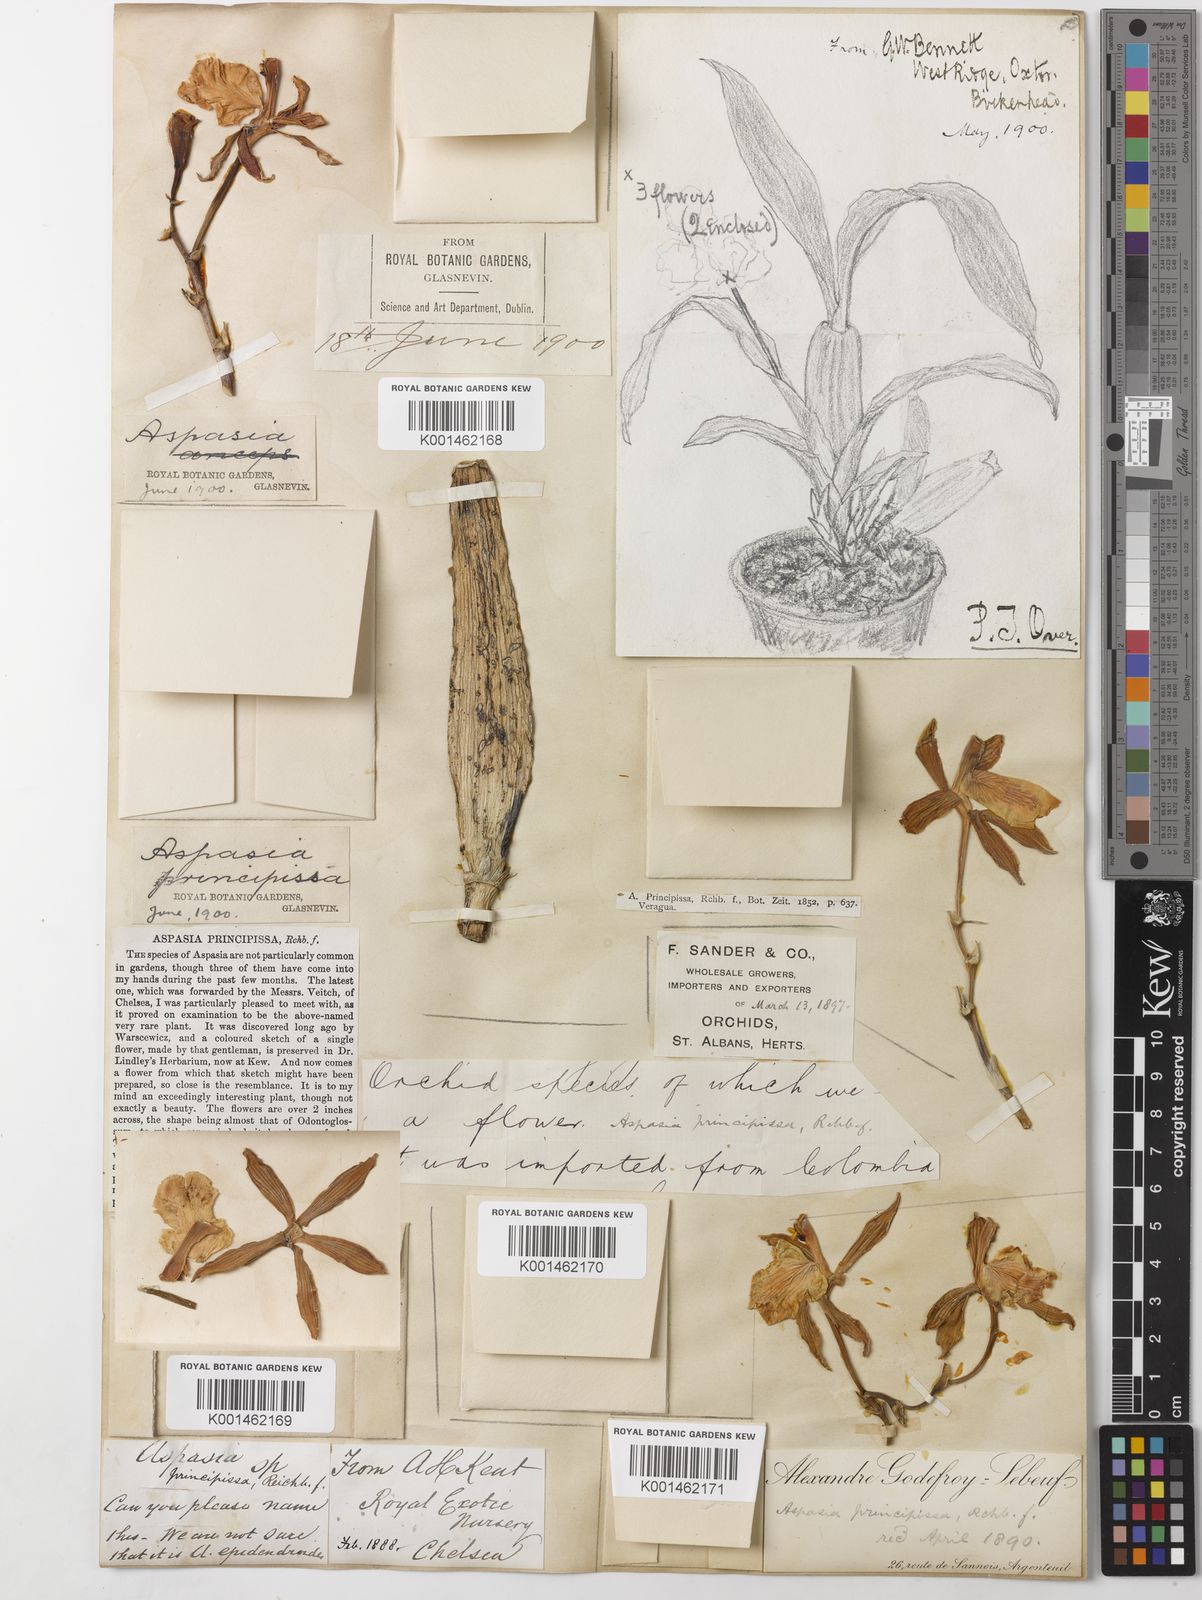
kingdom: Plantae
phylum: Tracheophyta
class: Liliopsida
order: Asparagales
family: Orchidaceae
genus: Aspasia
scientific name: Aspasia epidendroides
